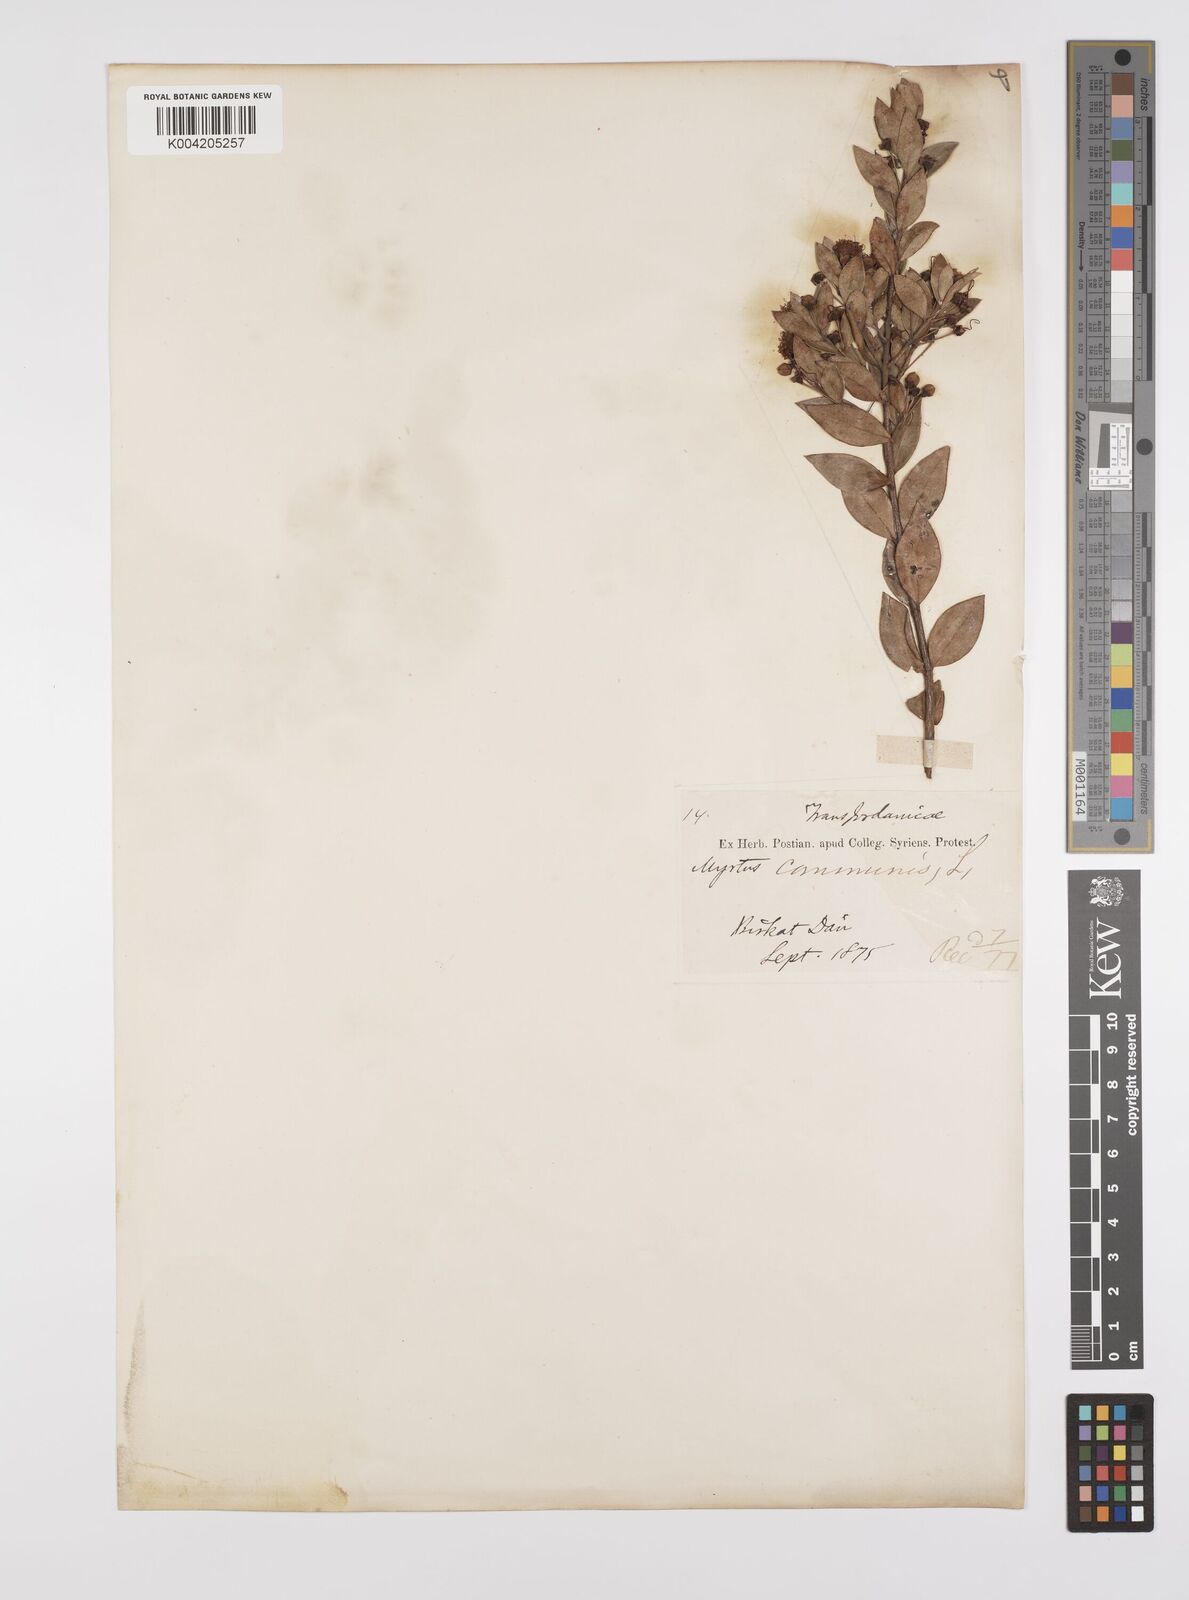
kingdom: Plantae
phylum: Tracheophyta
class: Magnoliopsida
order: Myrtales
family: Myrtaceae
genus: Myrtus
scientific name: Myrtus communis
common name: Myrtle
